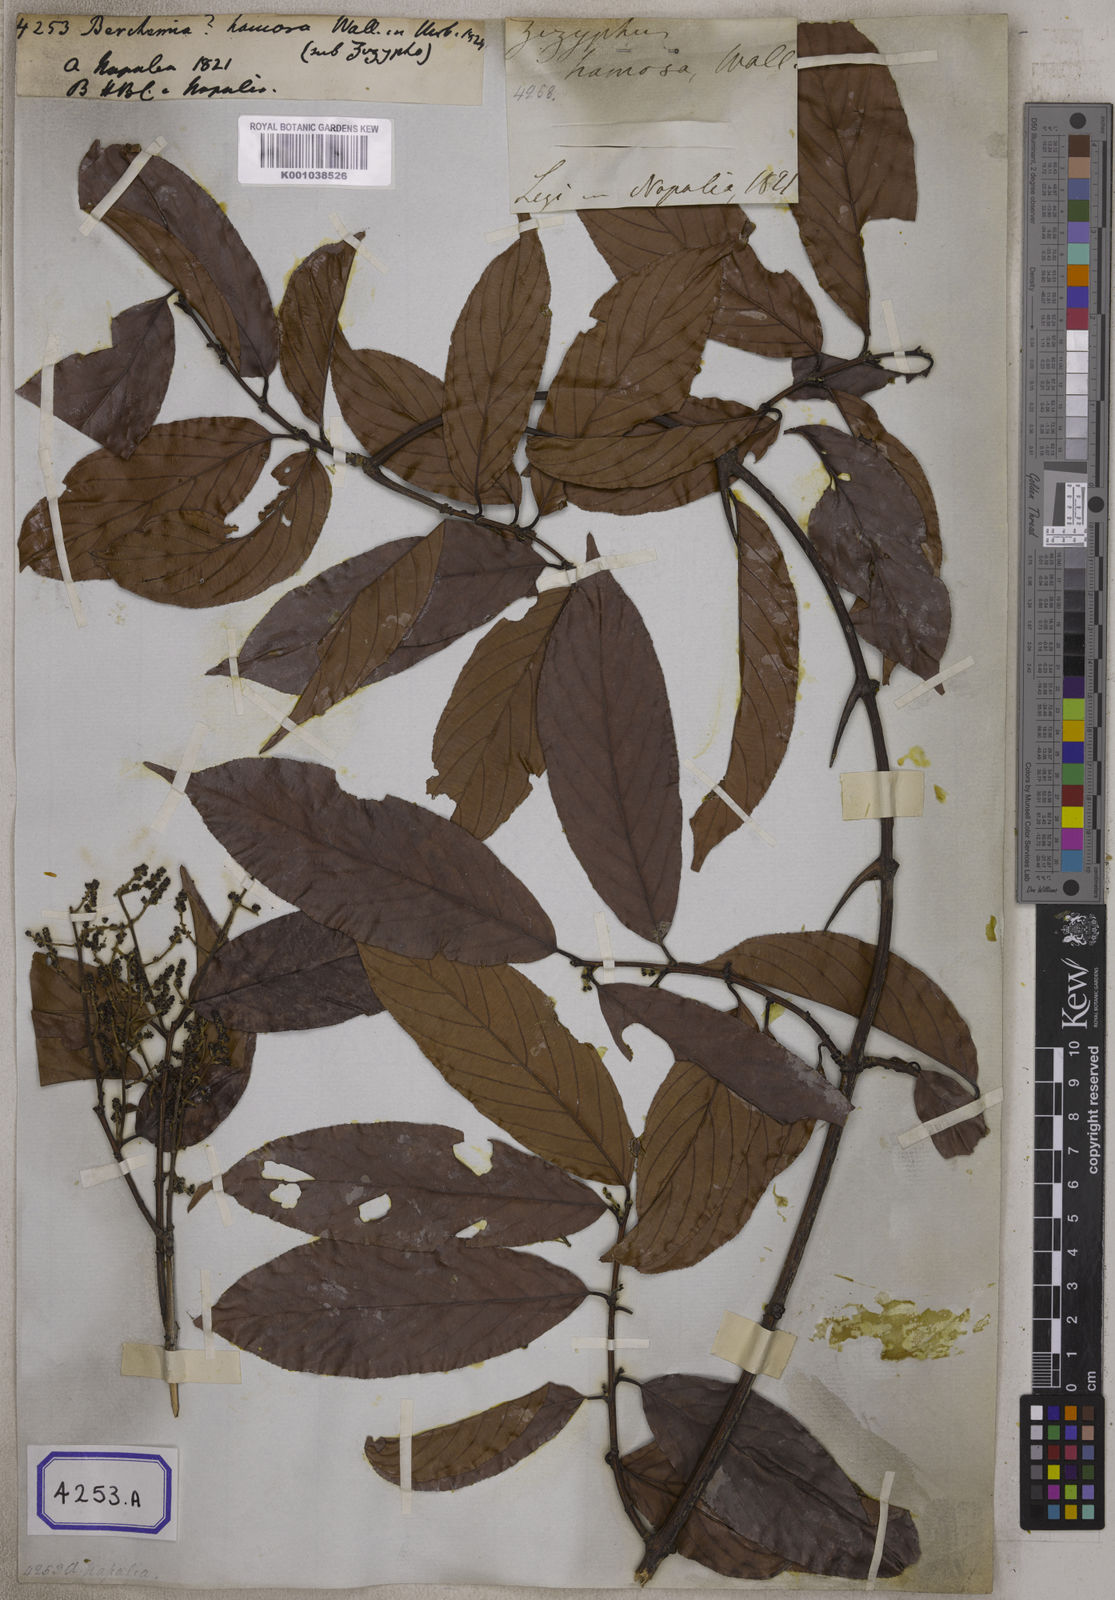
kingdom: Plantae
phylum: Tracheophyta
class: Magnoliopsida
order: Rosales
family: Rhamnaceae
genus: Sageretia
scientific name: Sageretia hamosa
